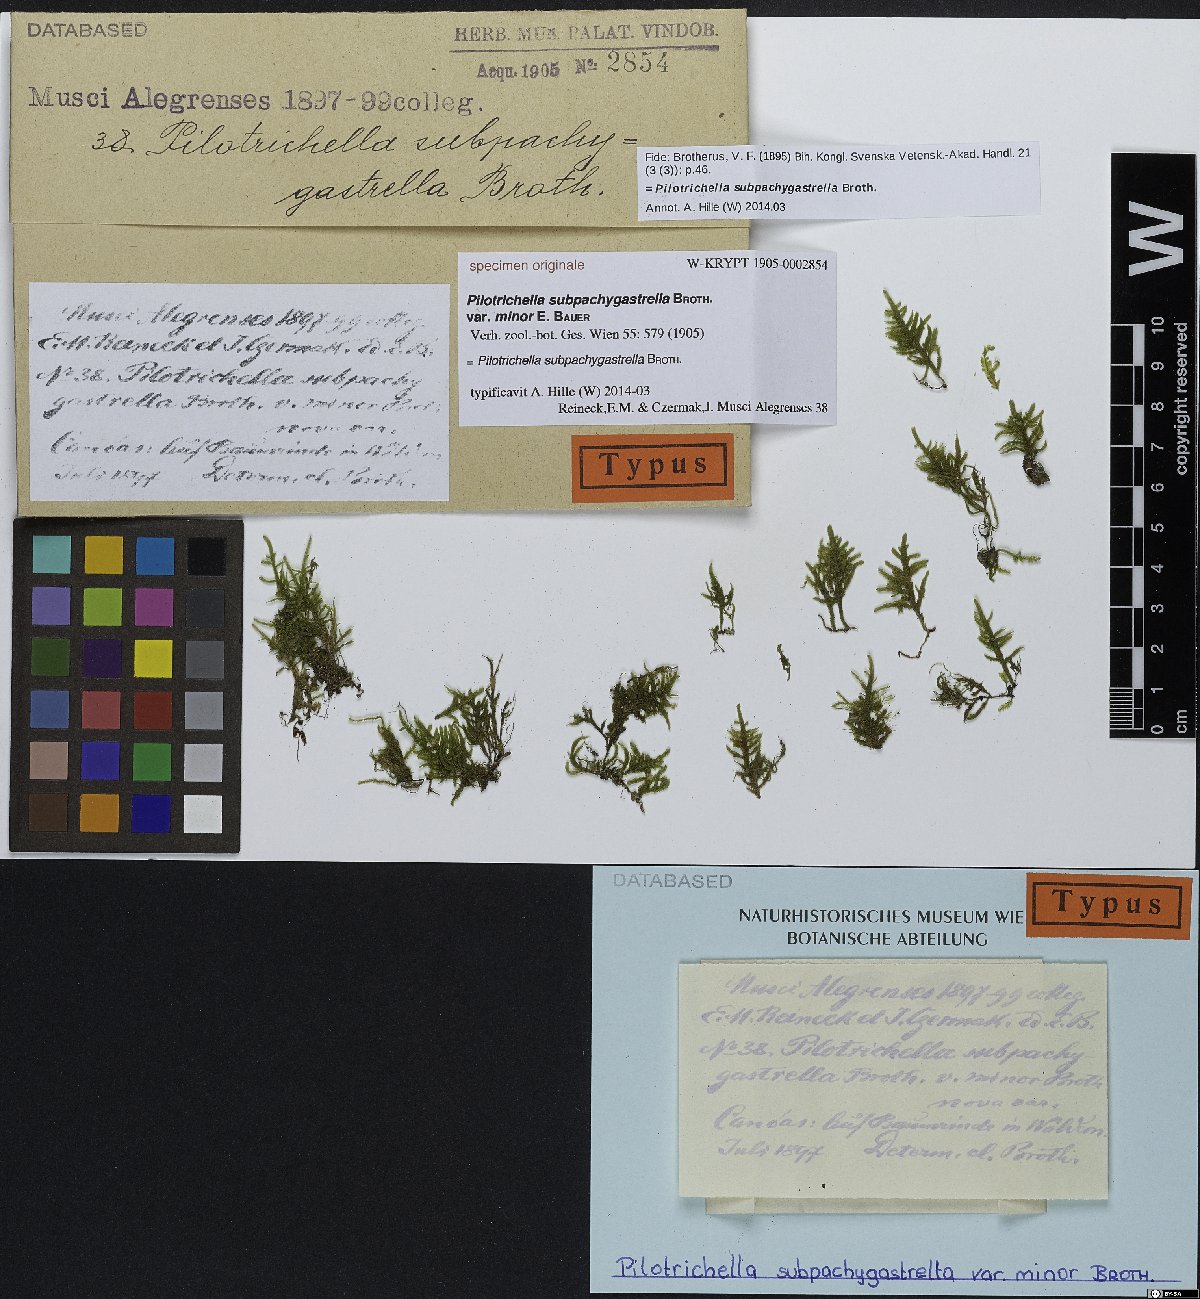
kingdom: Plantae
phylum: Bryophyta
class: Bryopsida
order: Hypnales
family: Orthostichellaceae
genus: Orthostichella
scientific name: Orthostichella pachygastrella
